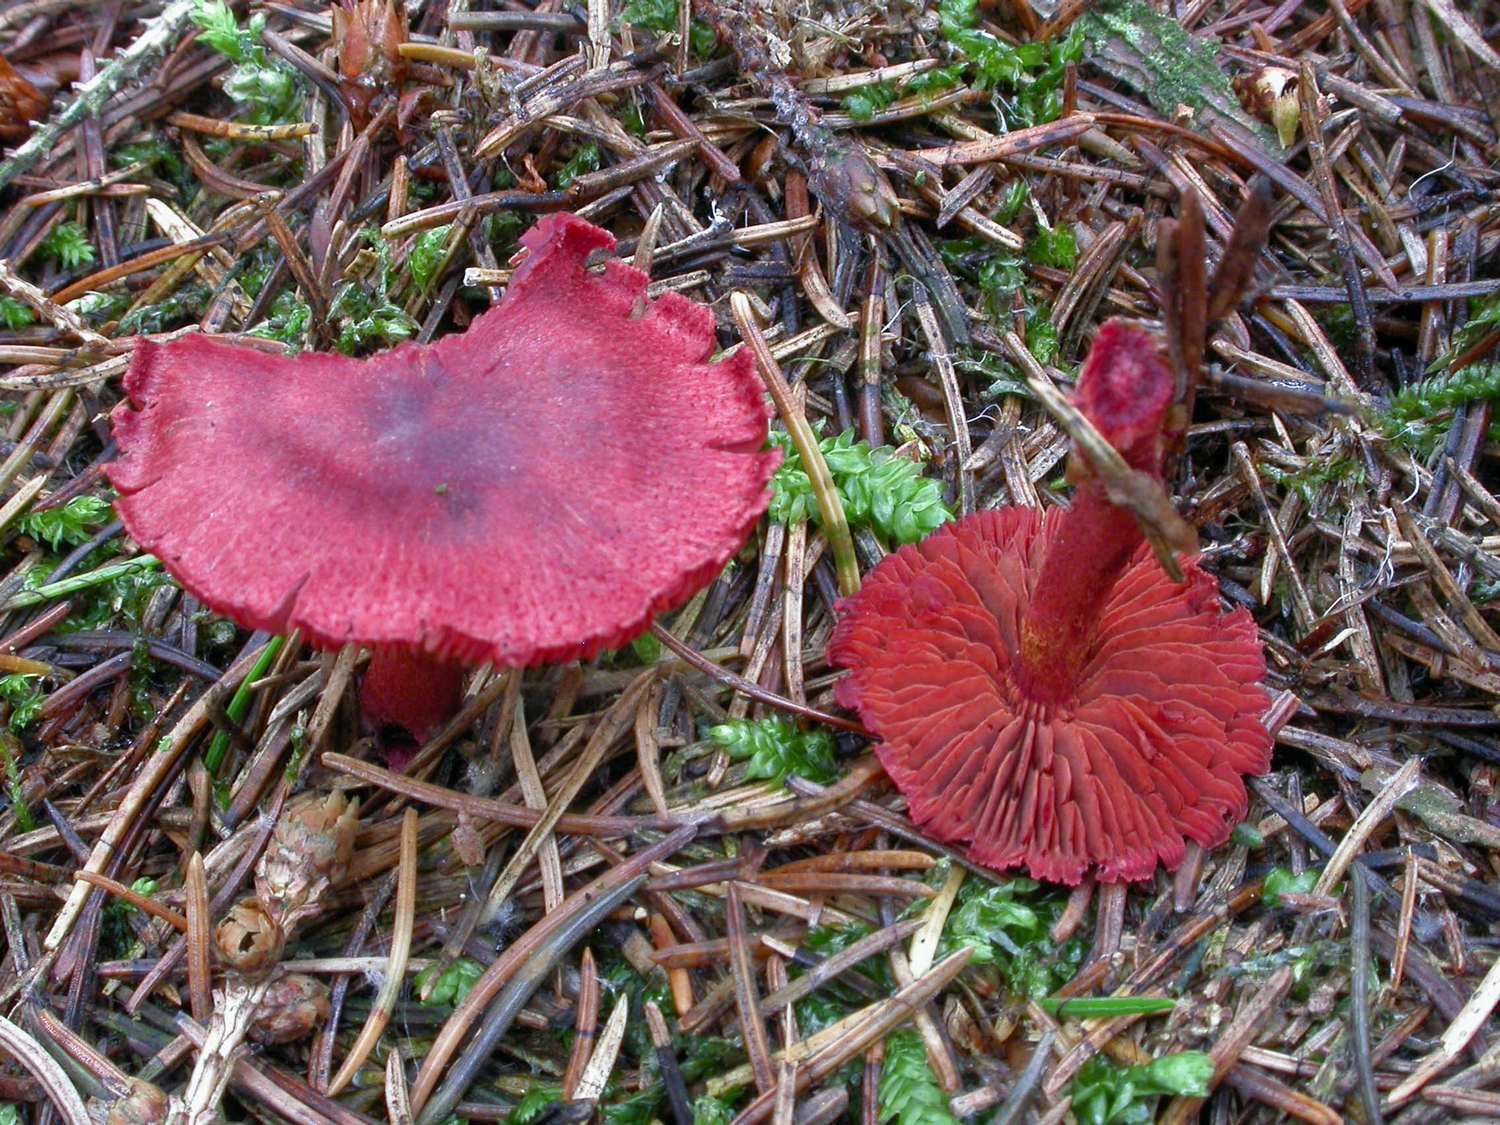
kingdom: Fungi
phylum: Basidiomycota
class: Agaricomycetes
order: Agaricales
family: Cortinariaceae
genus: Cortinarius
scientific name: Cortinarius sanguineus
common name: blodrød slørhat
